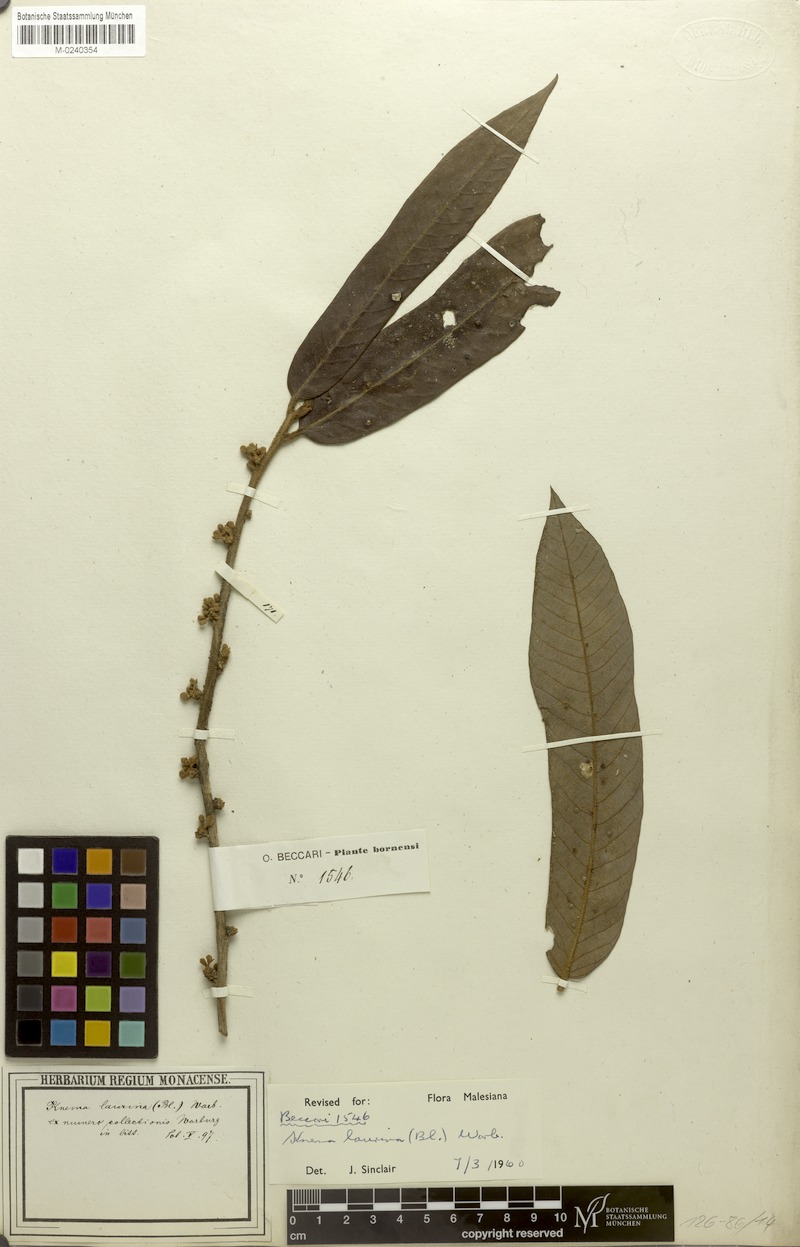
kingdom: Plantae
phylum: Tracheophyta
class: Magnoliopsida
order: Magnoliales
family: Myristicaceae
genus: Knema
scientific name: Knema laurina
